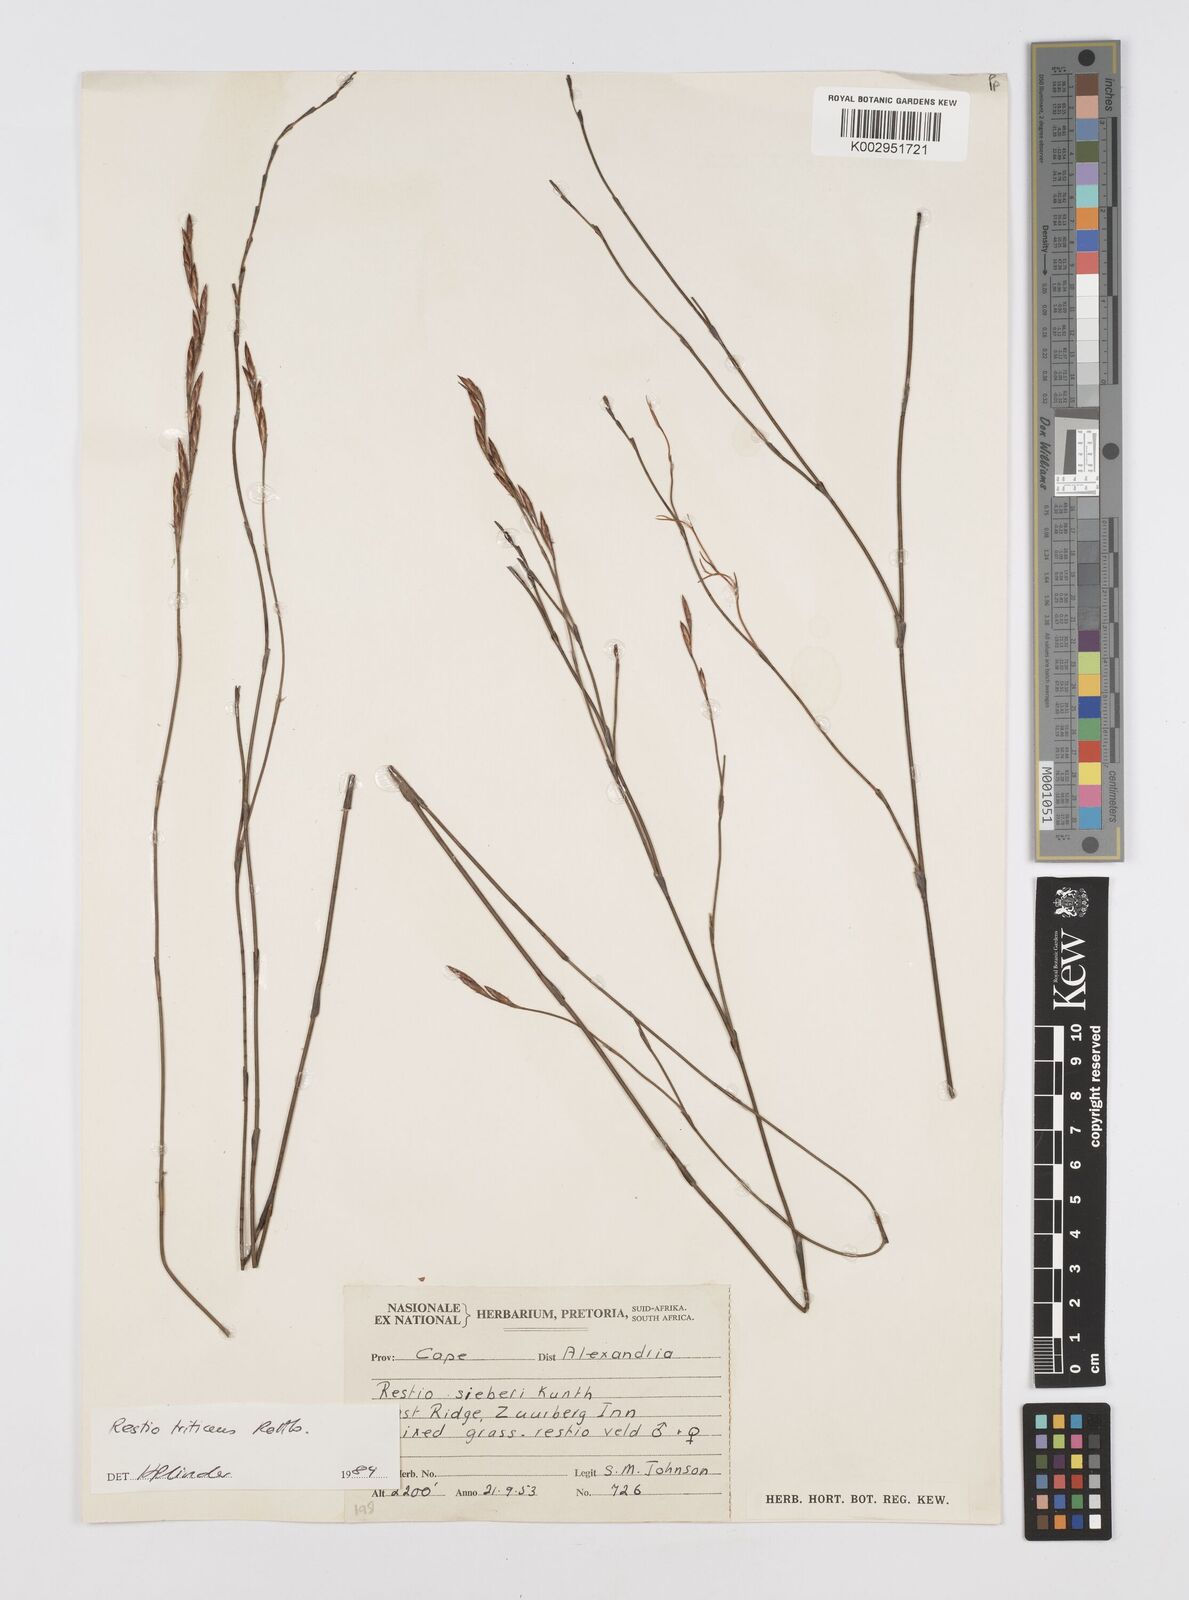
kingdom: Plantae
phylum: Tracheophyta
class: Liliopsida
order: Poales
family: Restionaceae
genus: Restio
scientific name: Restio triticeus
